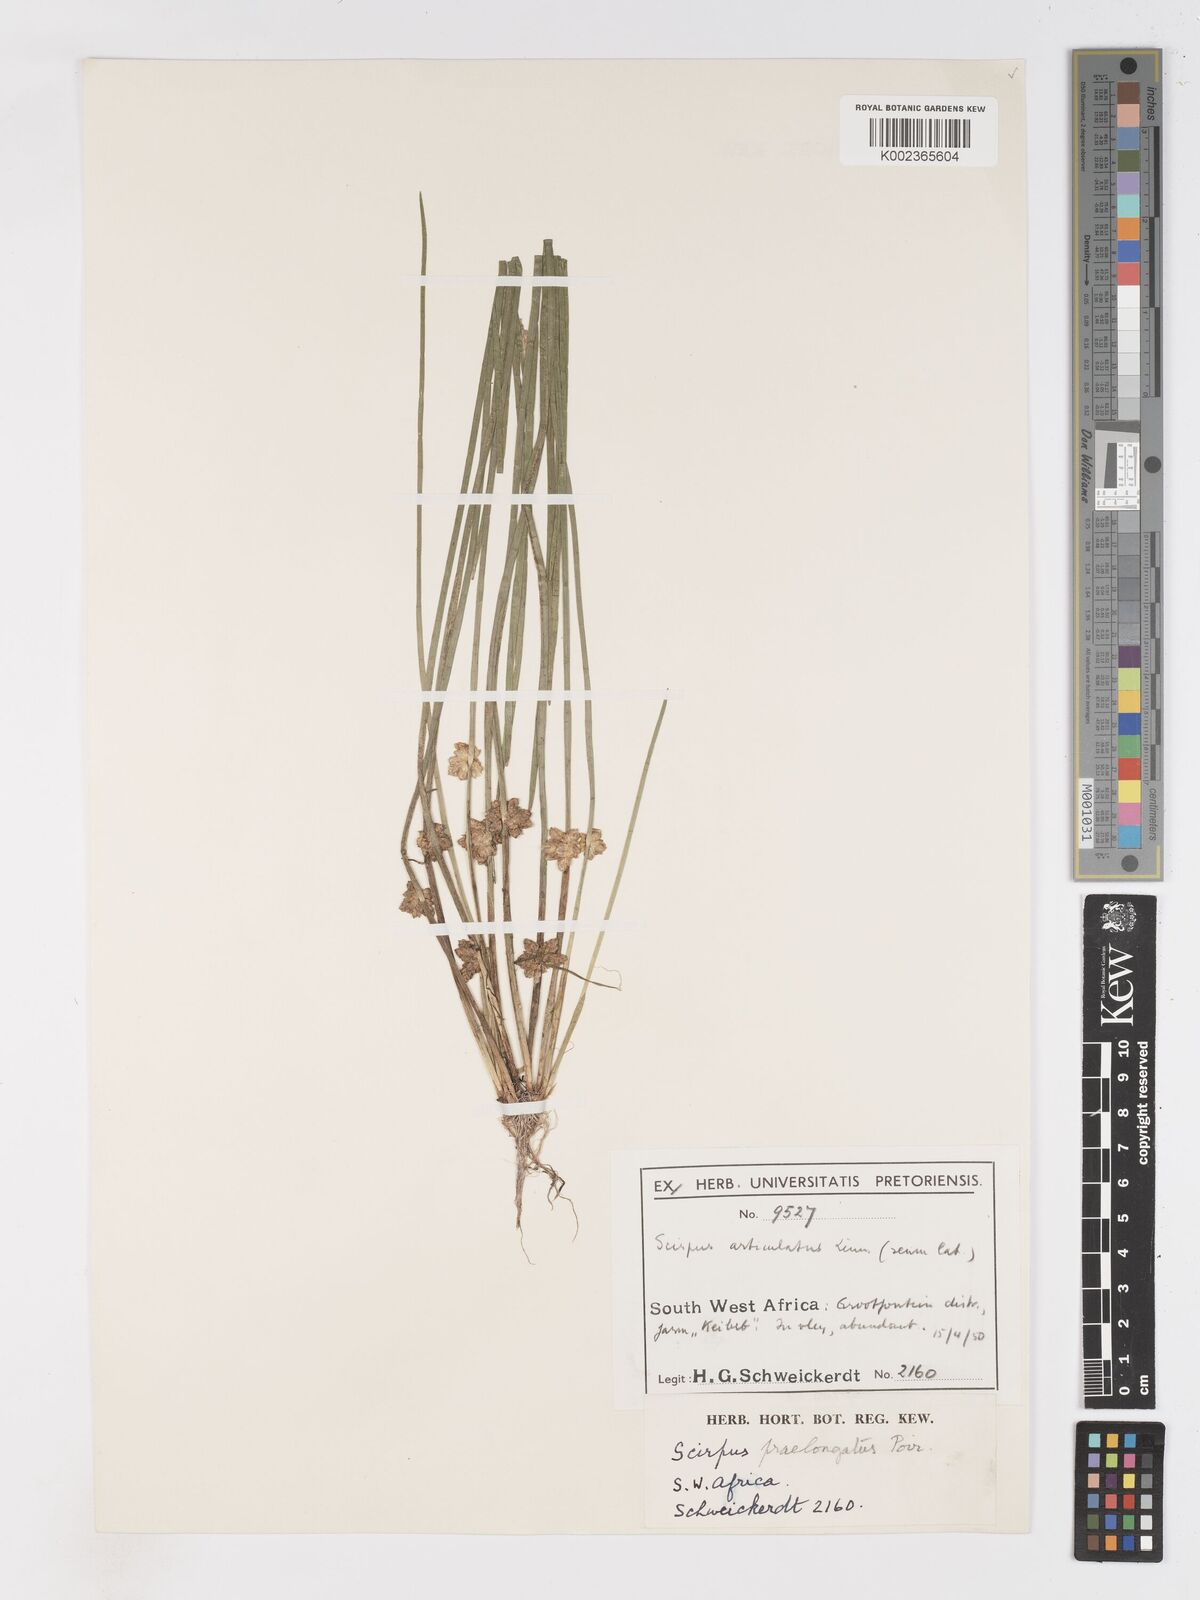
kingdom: Plantae
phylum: Tracheophyta
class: Liliopsida
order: Poales
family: Cyperaceae
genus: Schoenoplectiella
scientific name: Schoenoplectiella senegalensis
